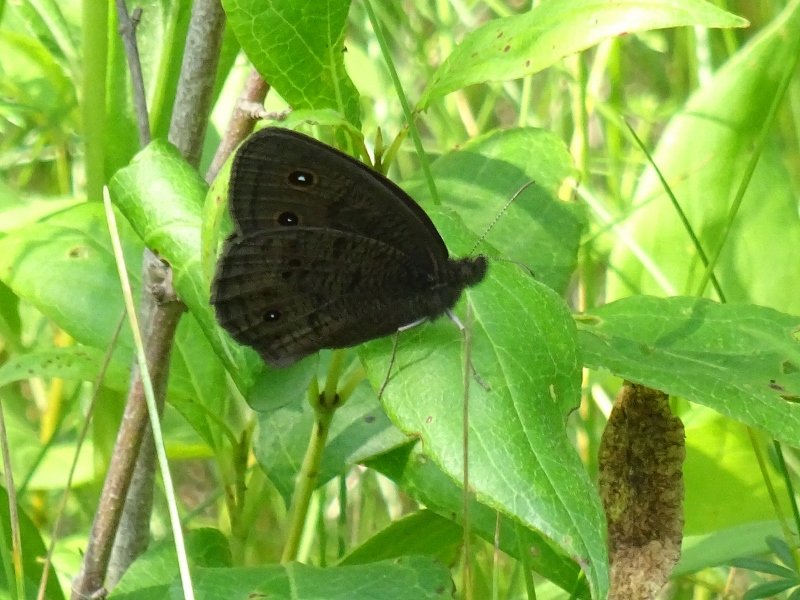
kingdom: Animalia
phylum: Arthropoda
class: Insecta
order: Lepidoptera
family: Nymphalidae
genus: Cercyonis
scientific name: Cercyonis pegala
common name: Common Wood-Nymph
